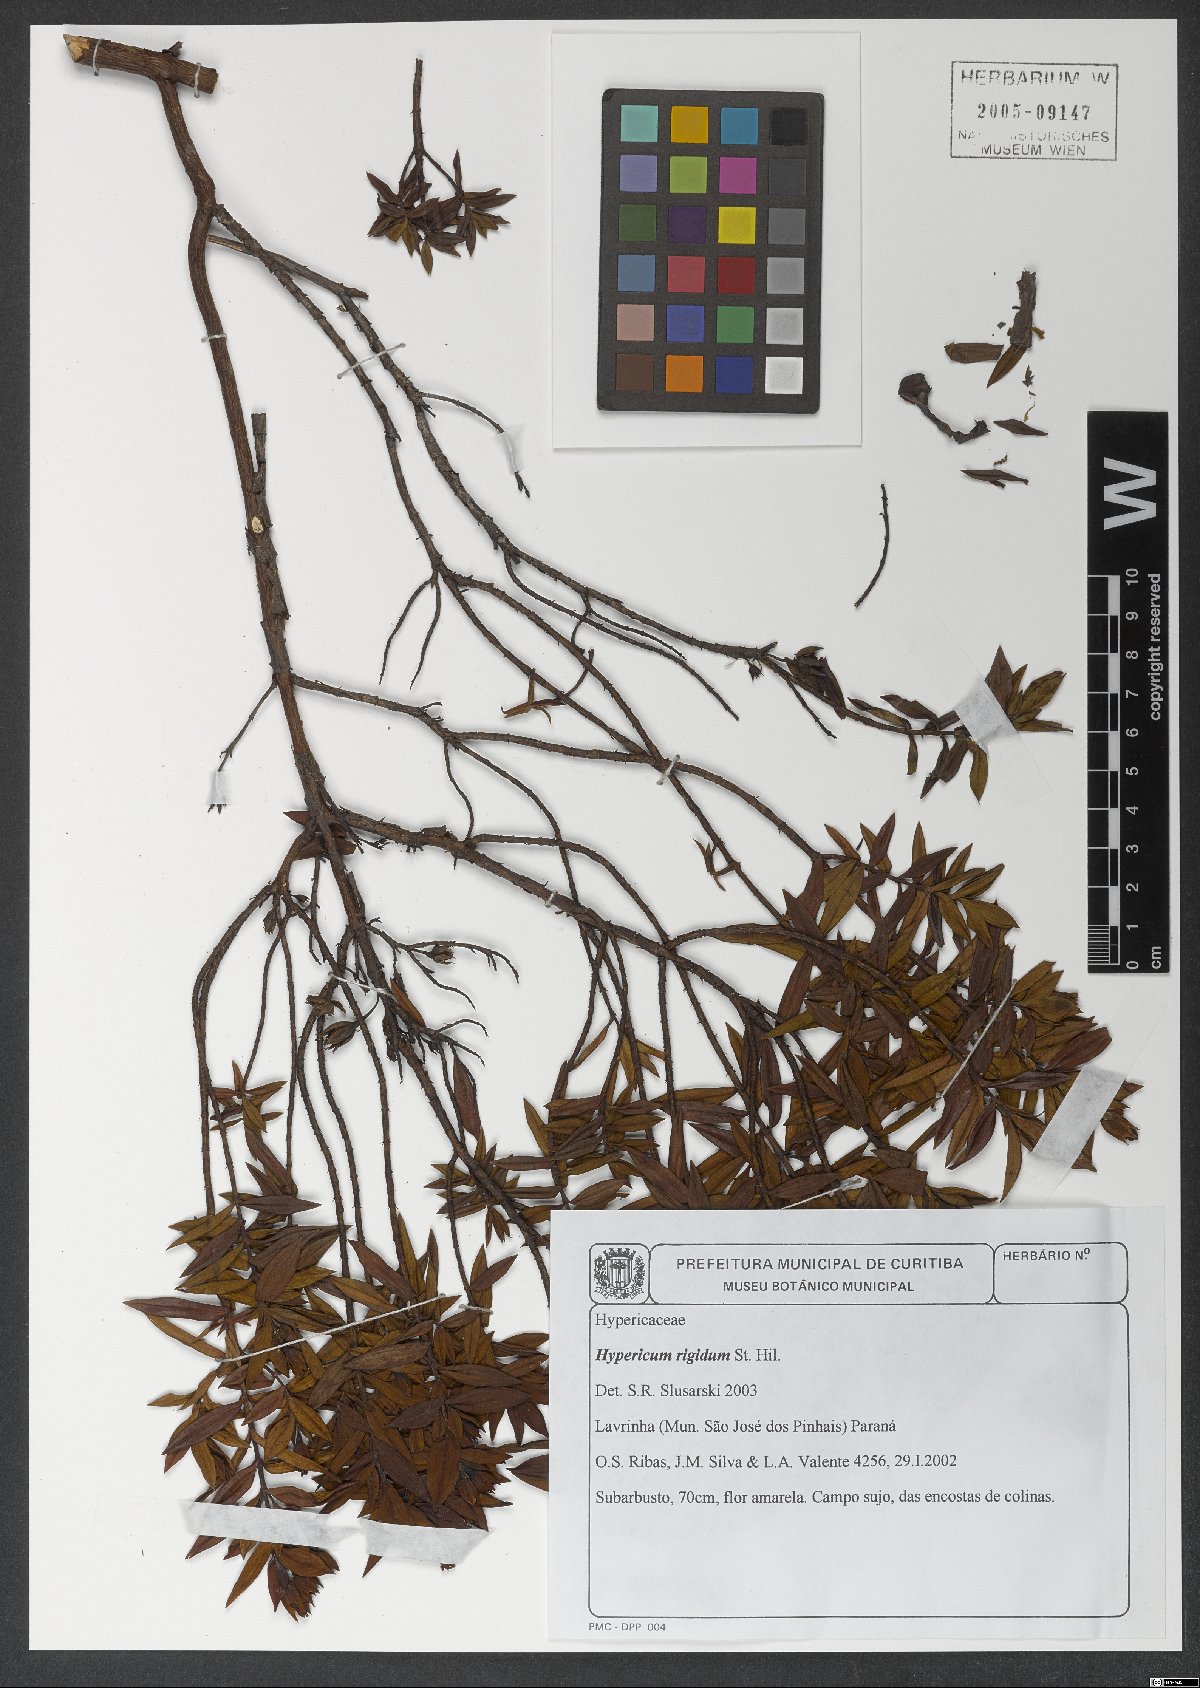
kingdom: Plantae
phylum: Tracheophyta
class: Magnoliopsida
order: Malpighiales
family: Hypericaceae
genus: Hypericum
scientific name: Hypericum rigidum
